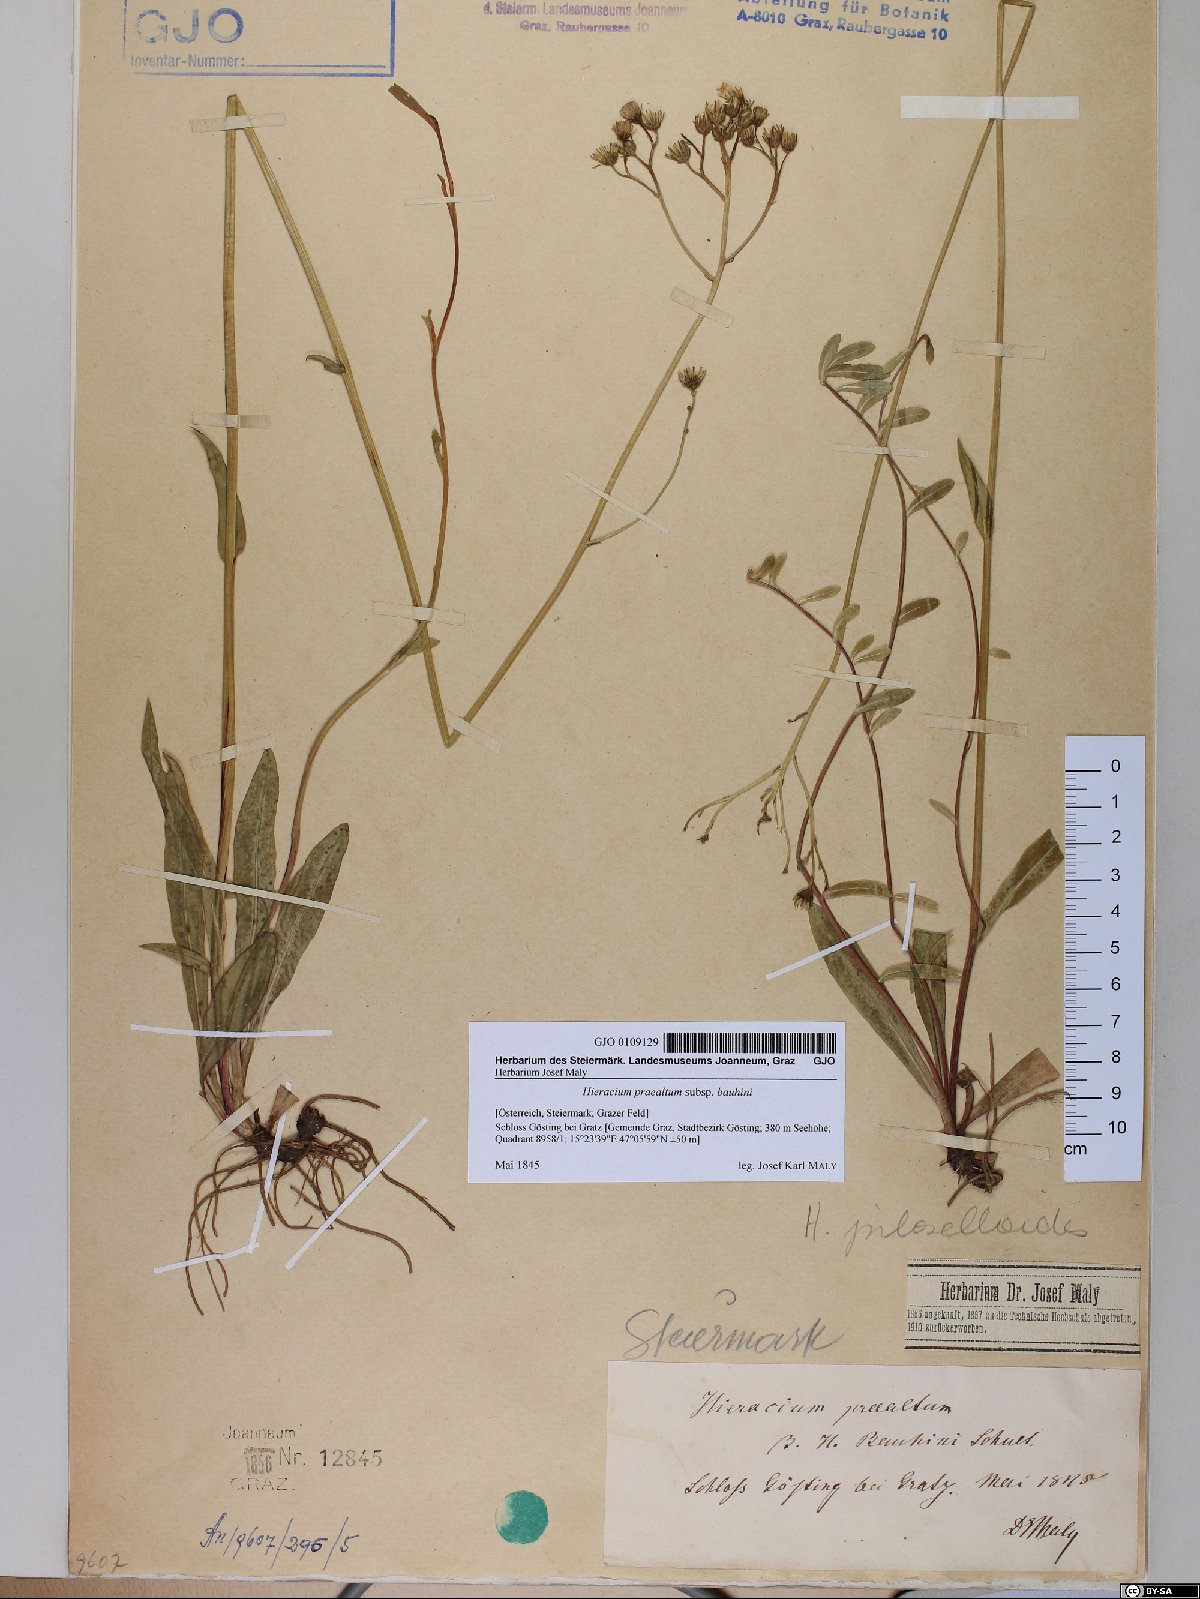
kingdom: Plantae
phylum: Tracheophyta
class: Magnoliopsida
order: Asterales
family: Asteraceae
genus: Pilosella
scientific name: Pilosella bauhini
